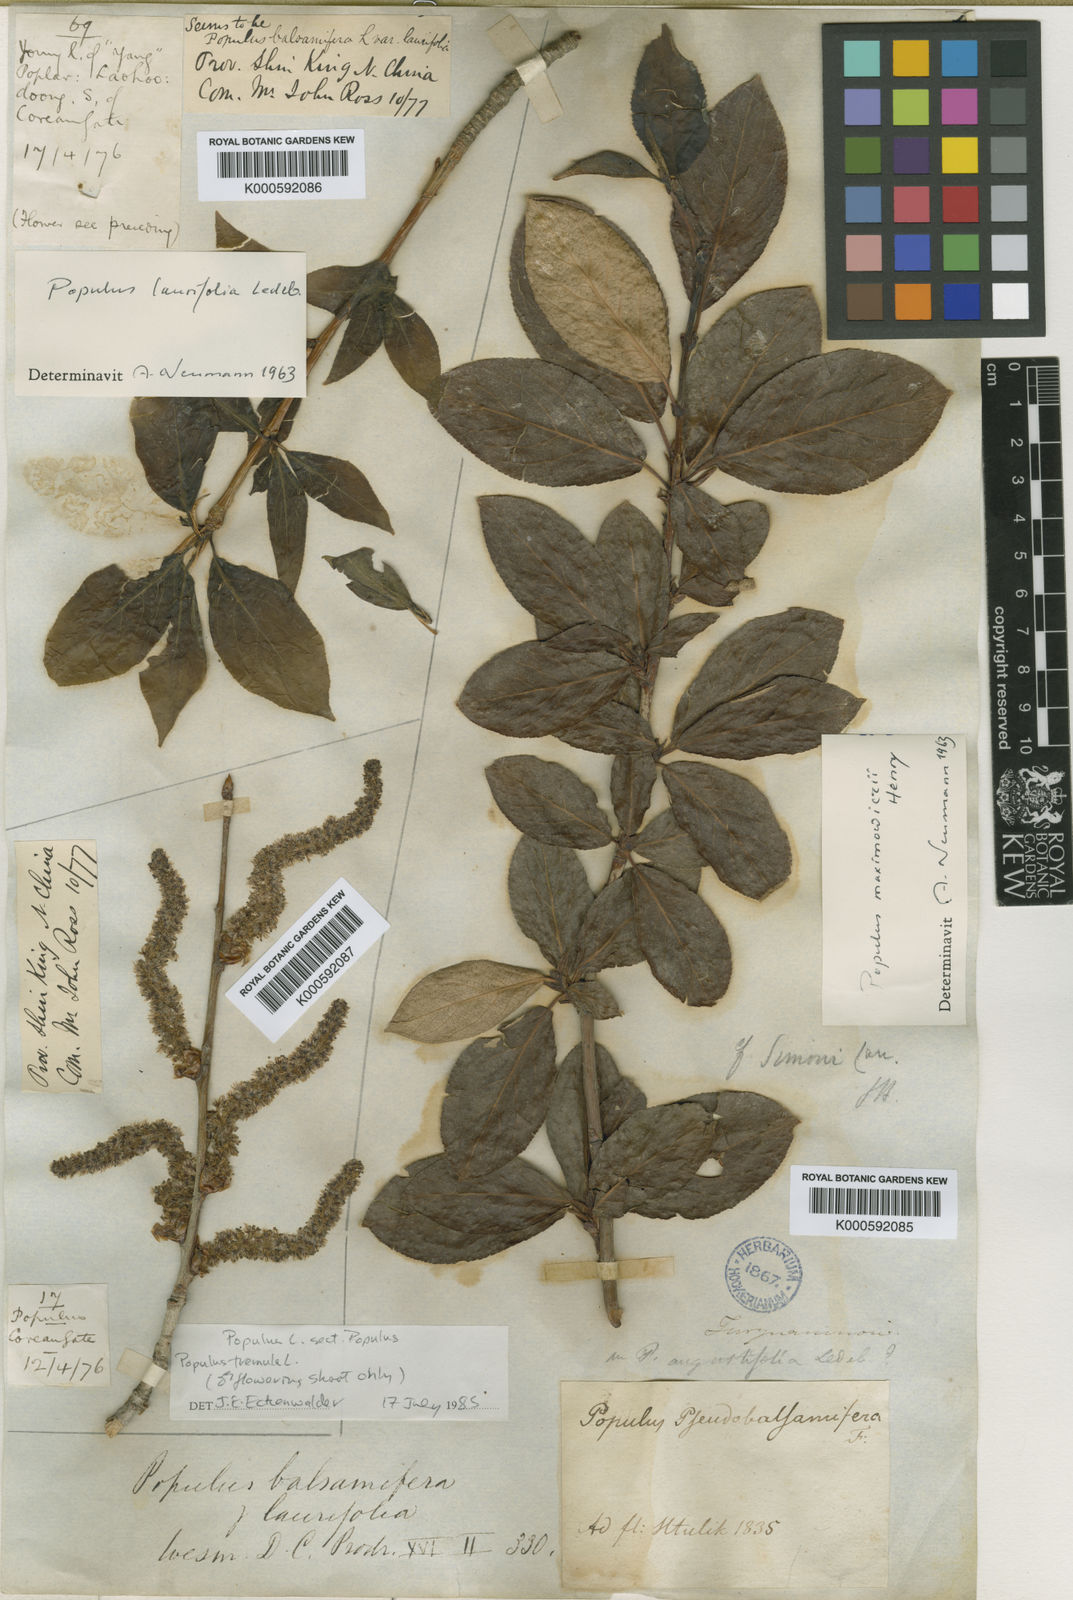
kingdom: Plantae
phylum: Tracheophyta
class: Magnoliopsida
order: Malpighiales
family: Salicaceae
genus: Populus
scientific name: Populus suaveolens
